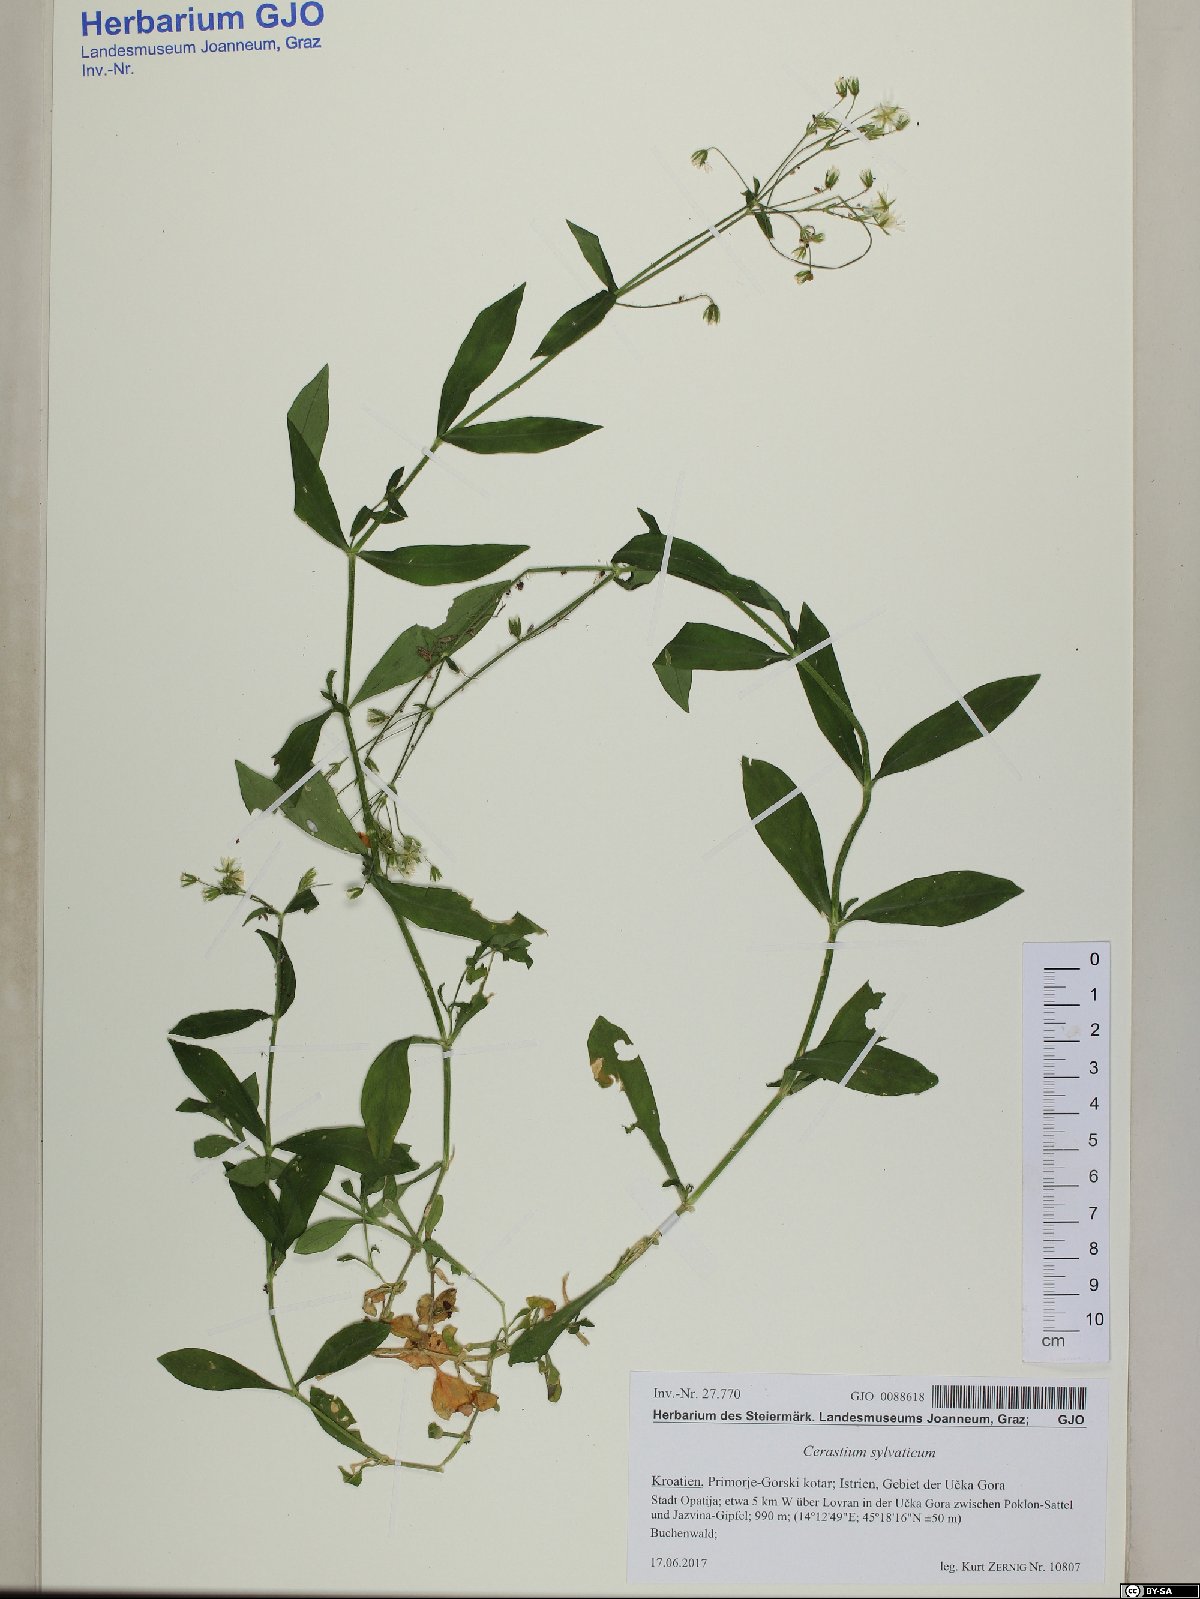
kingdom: Plantae
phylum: Tracheophyta
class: Magnoliopsida
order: Caryophyllales
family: Caryophyllaceae
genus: Cerastium
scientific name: Cerastium sylvaticum
